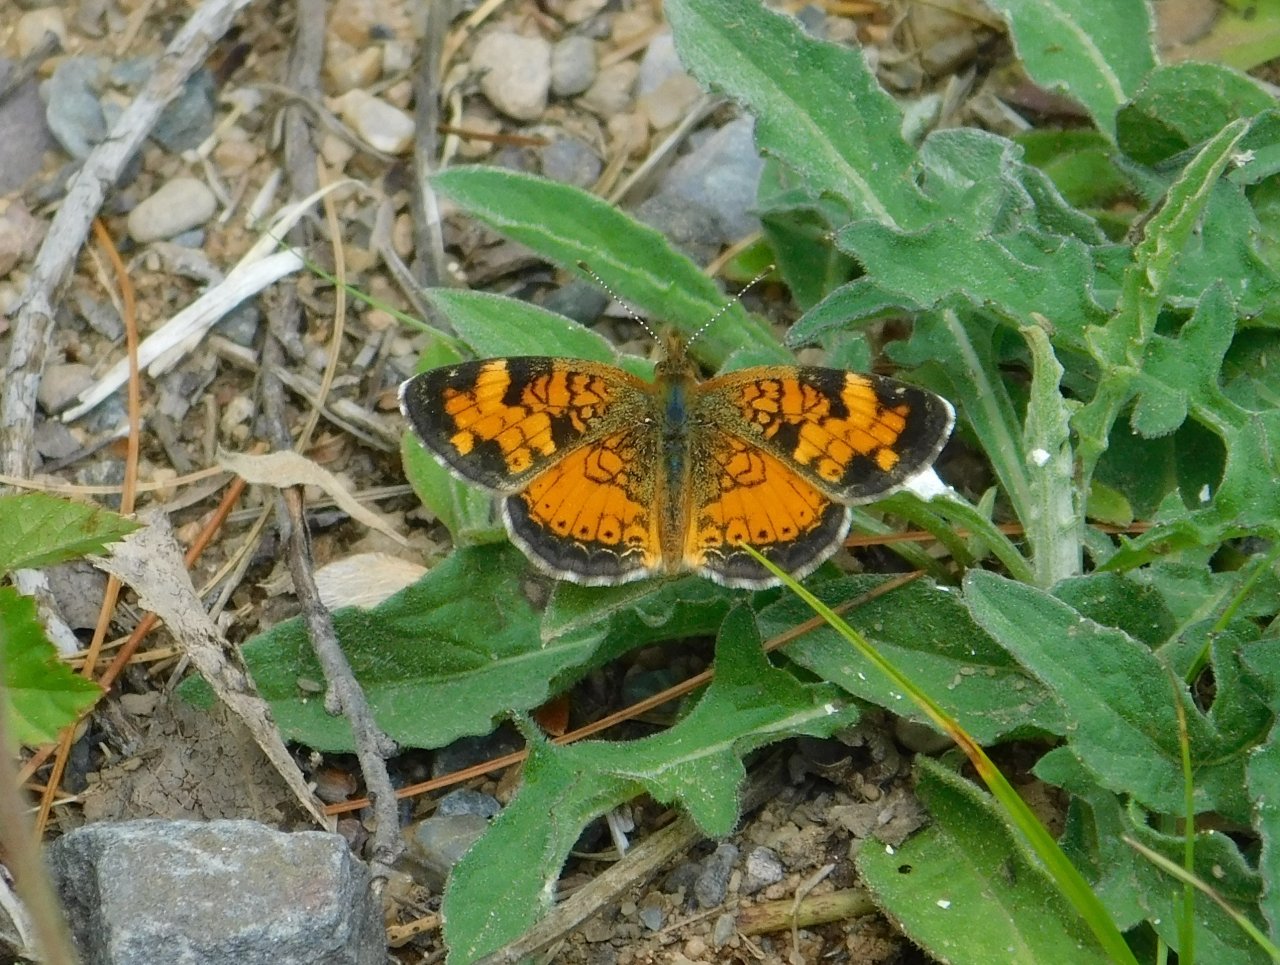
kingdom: Animalia
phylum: Arthropoda
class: Insecta
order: Lepidoptera
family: Nymphalidae
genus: Phyciodes
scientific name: Phyciodes tharos
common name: Northern Crescent
